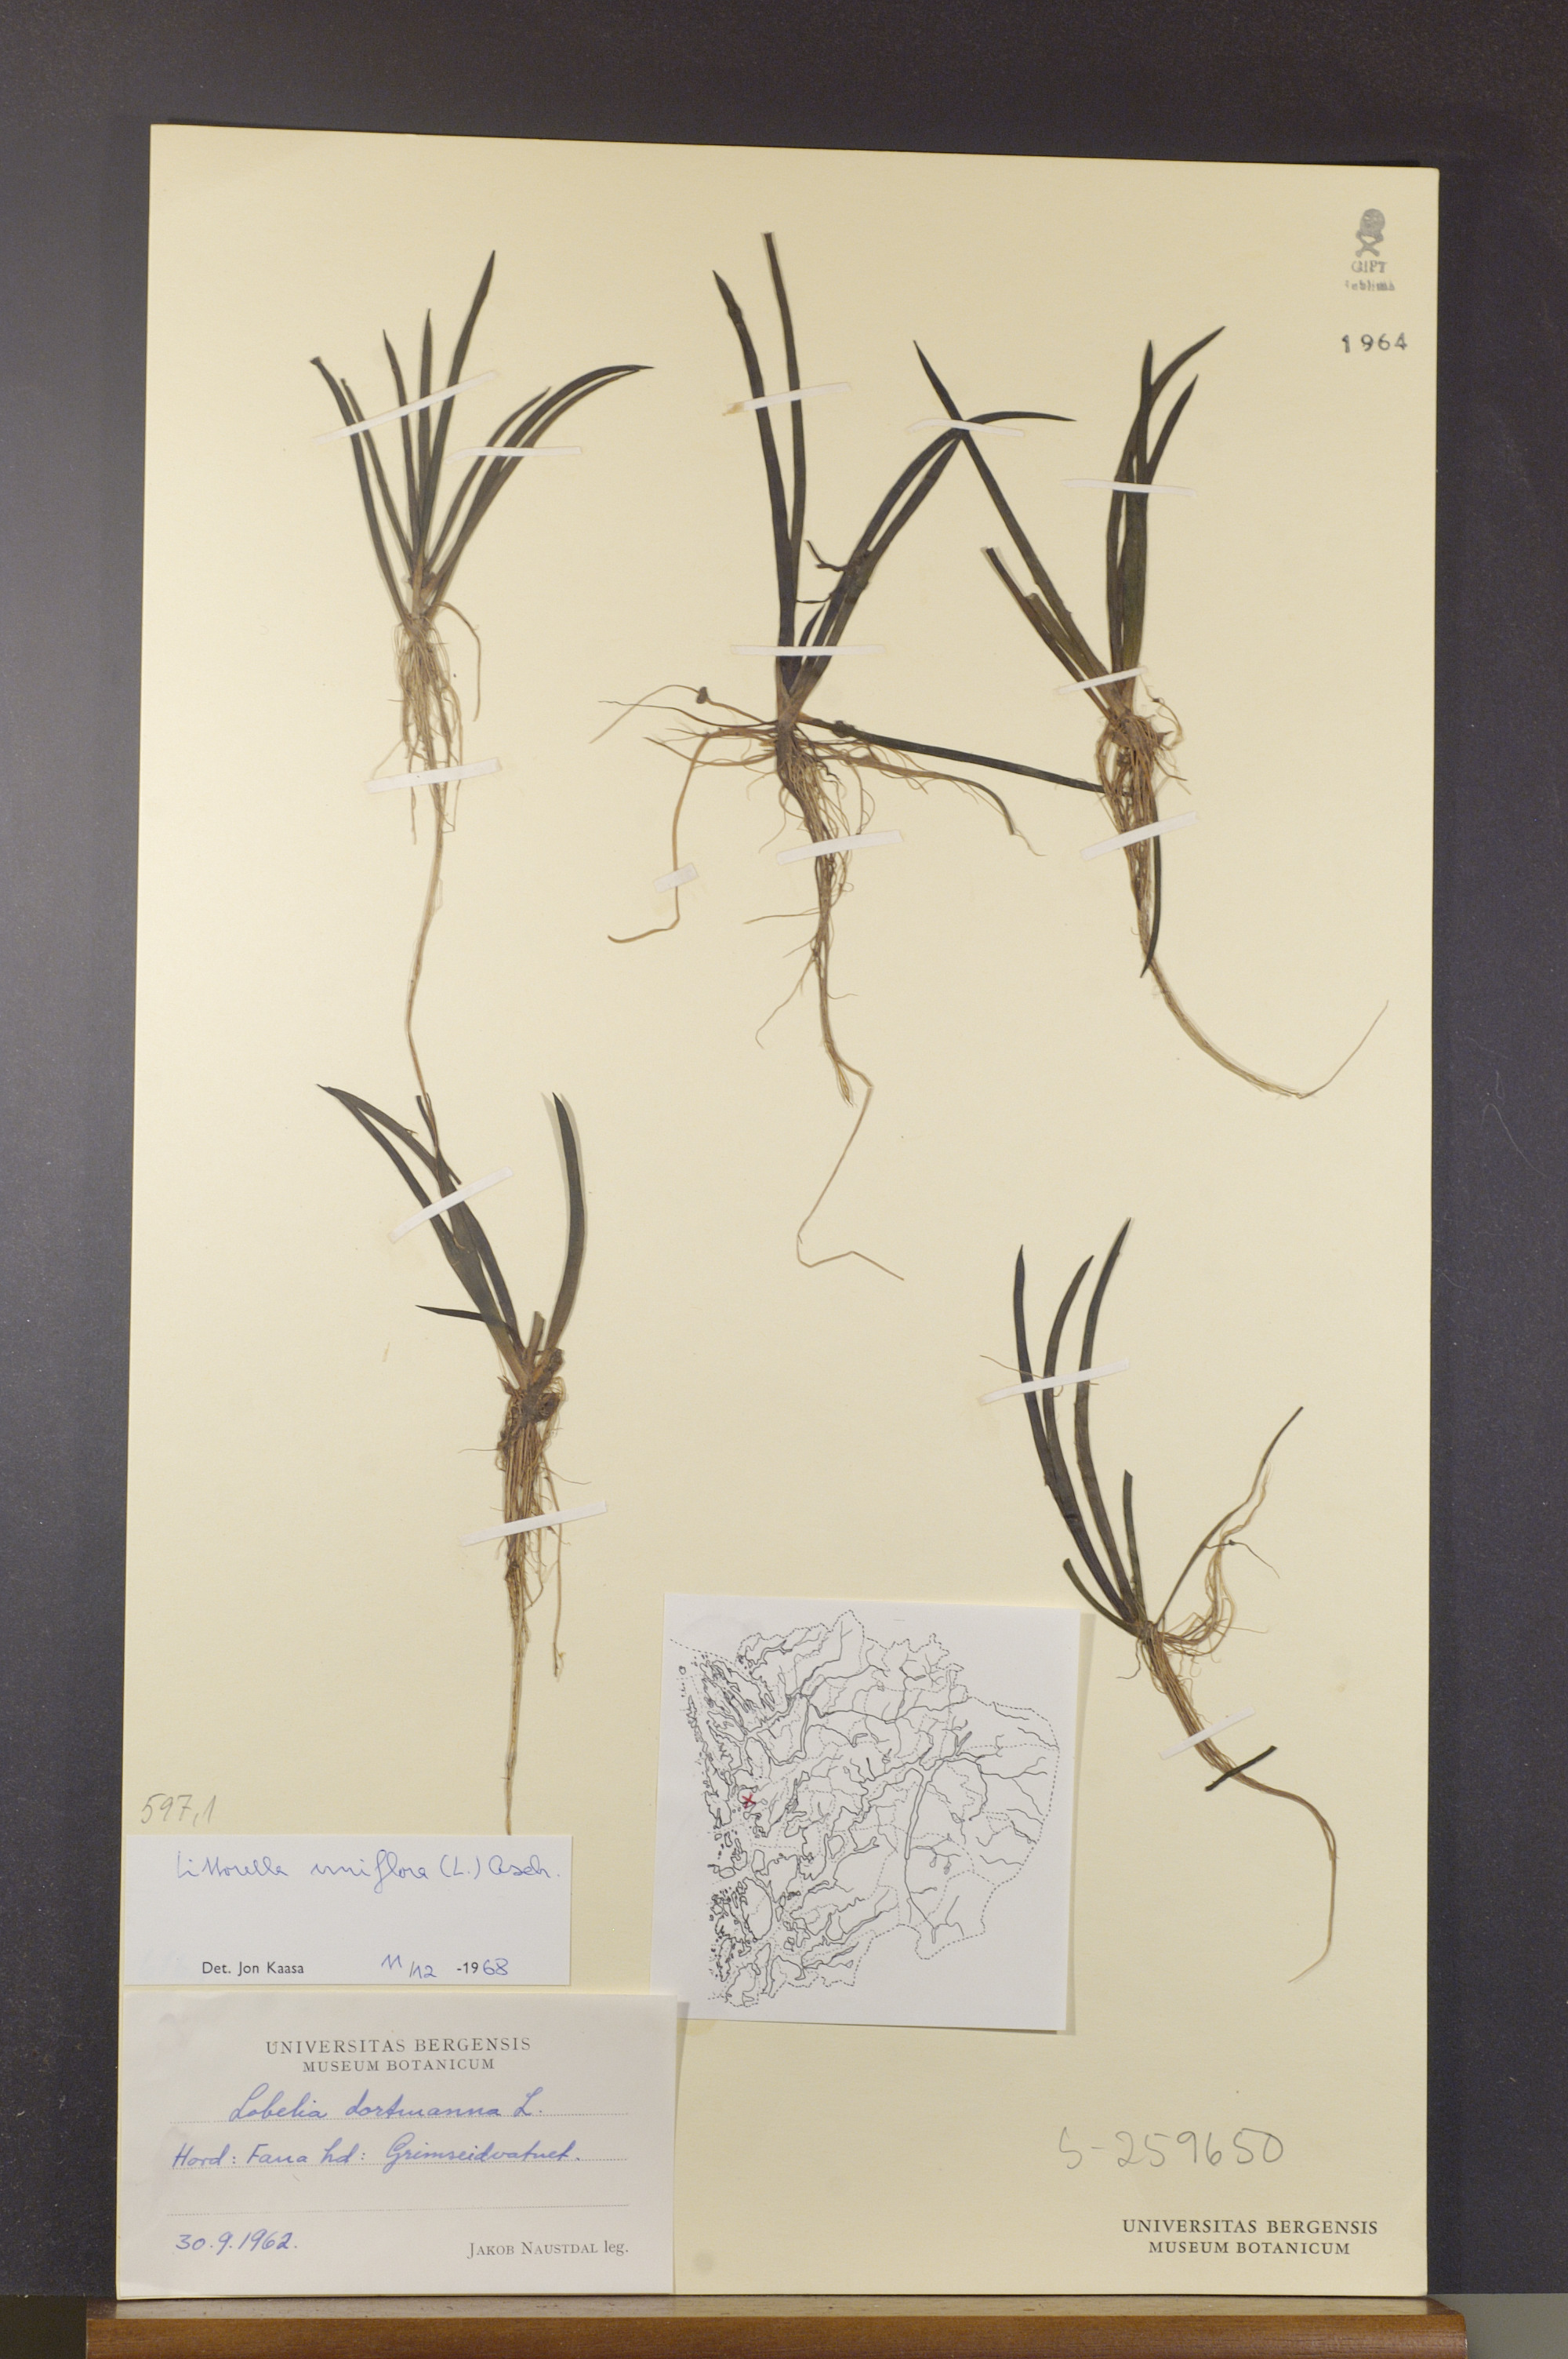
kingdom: Plantae
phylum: Tracheophyta
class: Magnoliopsida
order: Lamiales
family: Plantaginaceae
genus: Littorella
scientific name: Littorella uniflora
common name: Shoreweed
